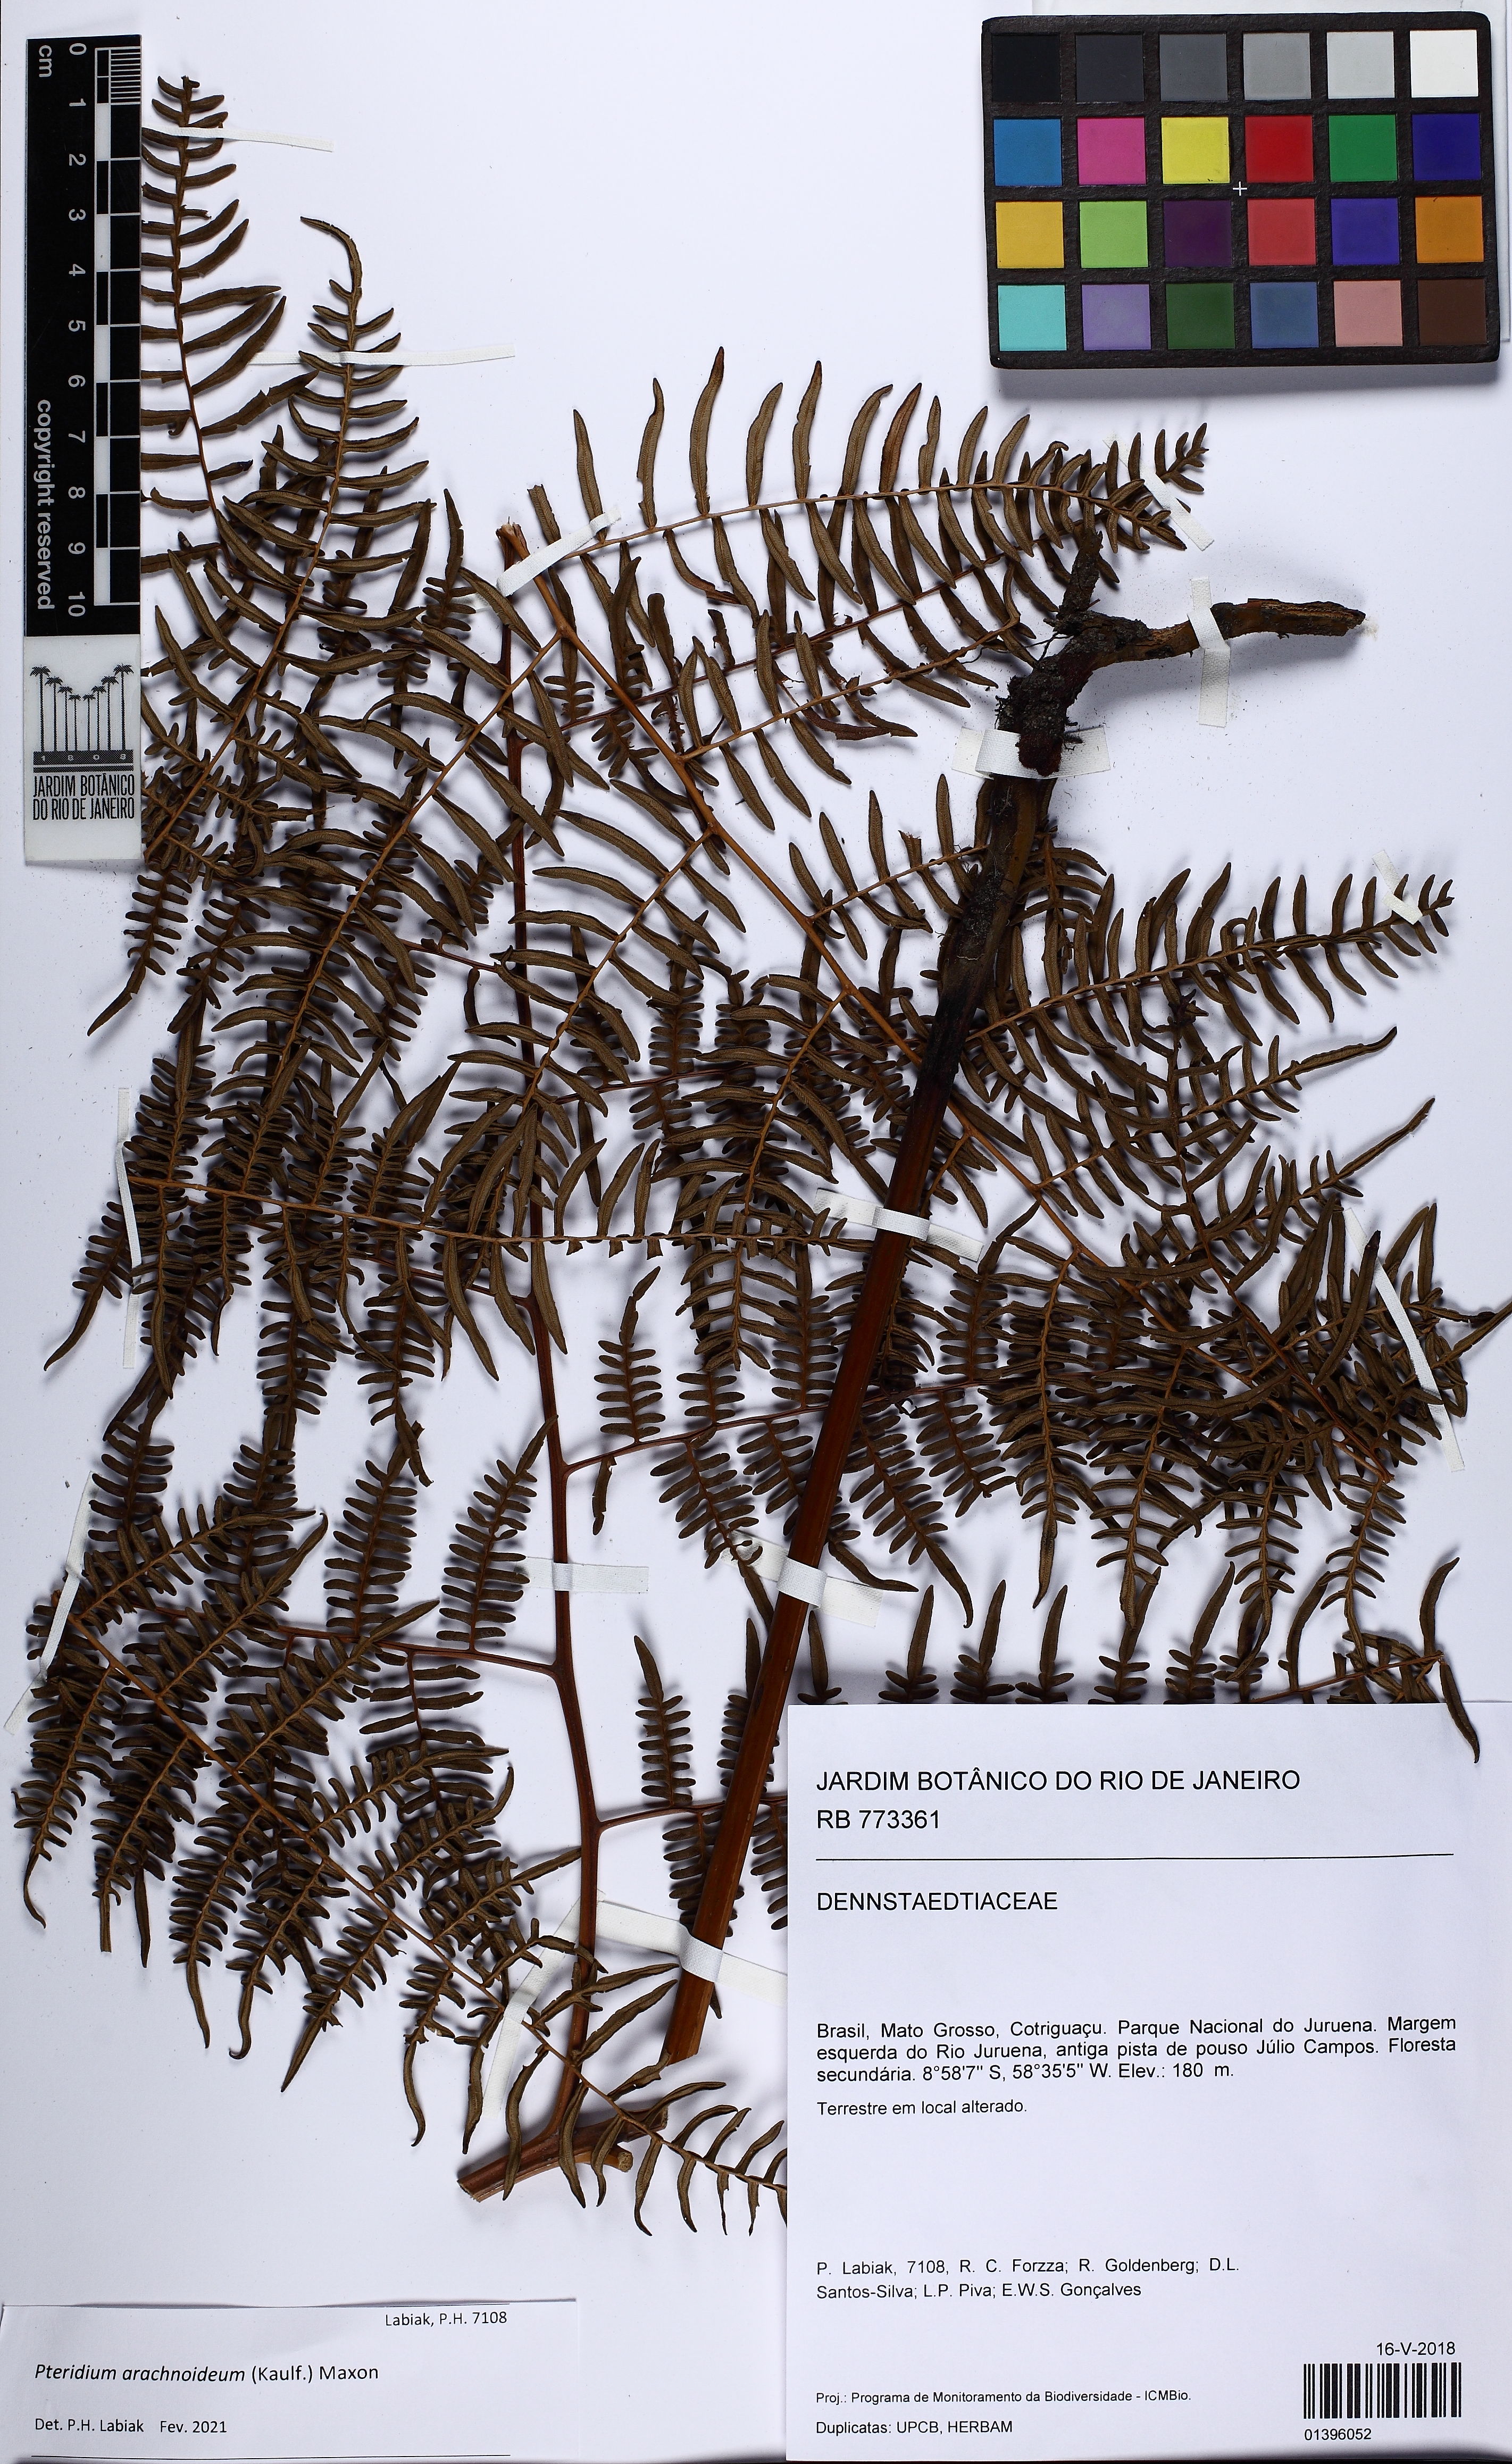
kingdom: Plantae
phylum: Tracheophyta
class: Polypodiopsida
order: Polypodiales
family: Dennstaedtiaceae
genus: Pteridium
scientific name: Pteridium esculentum
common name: Bracken fern
